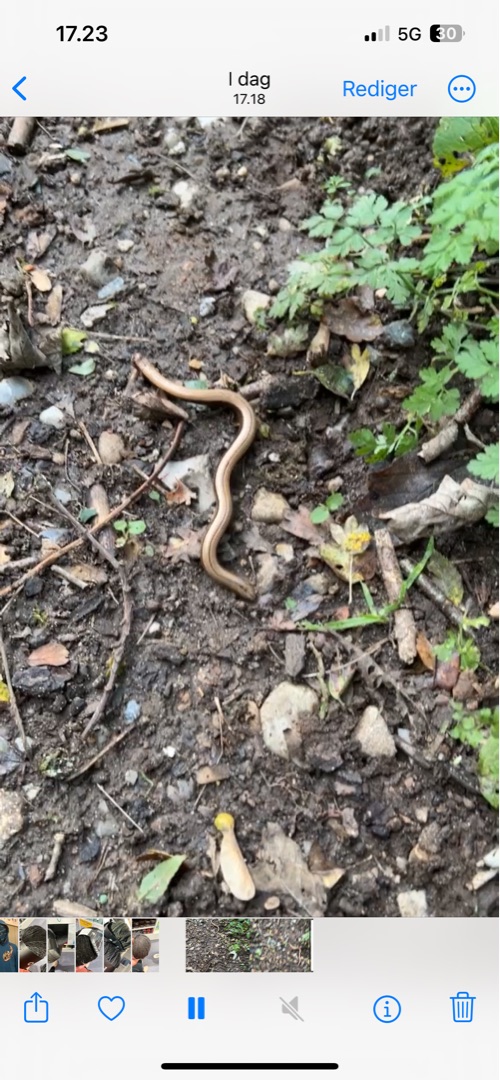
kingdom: Animalia
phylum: Chordata
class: Squamata
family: Anguidae
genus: Anguis
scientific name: Anguis fragilis
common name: Stålorm
